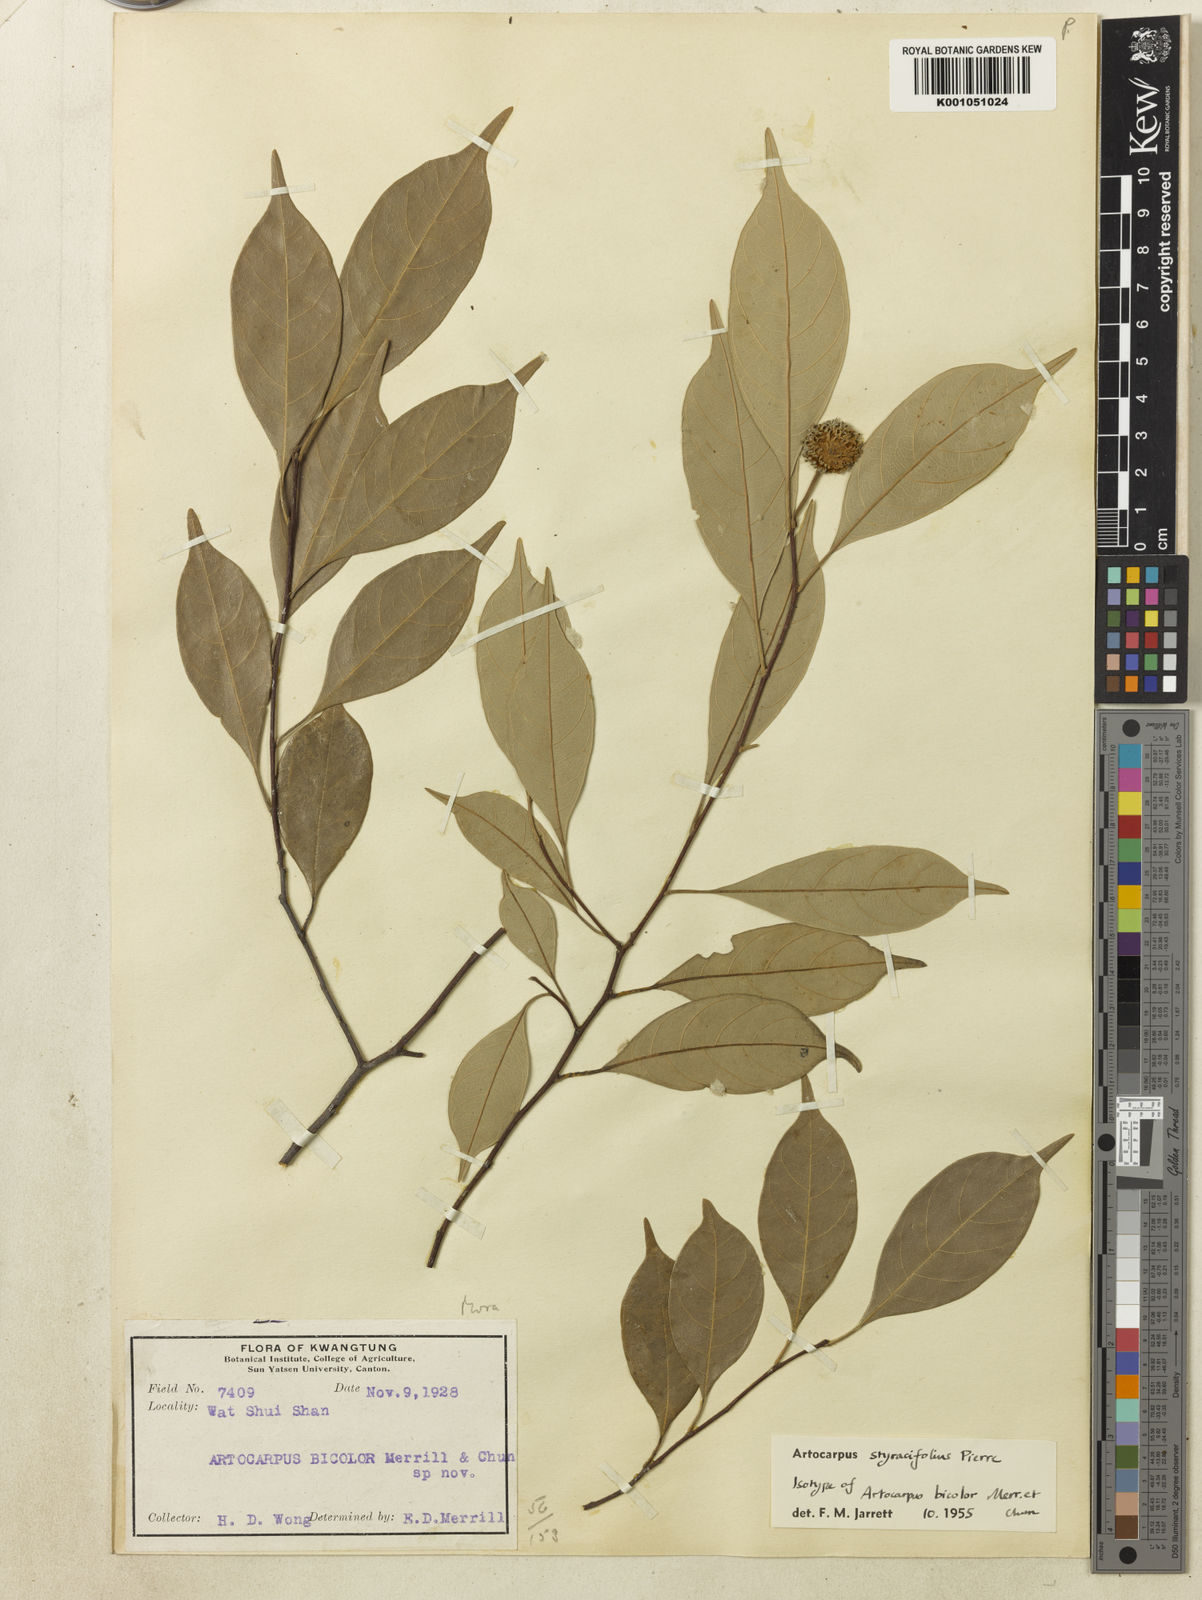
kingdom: Plantae
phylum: Tracheophyta
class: Magnoliopsida
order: Rosales
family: Moraceae
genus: Artocarpus
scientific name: Artocarpus styracifolius
